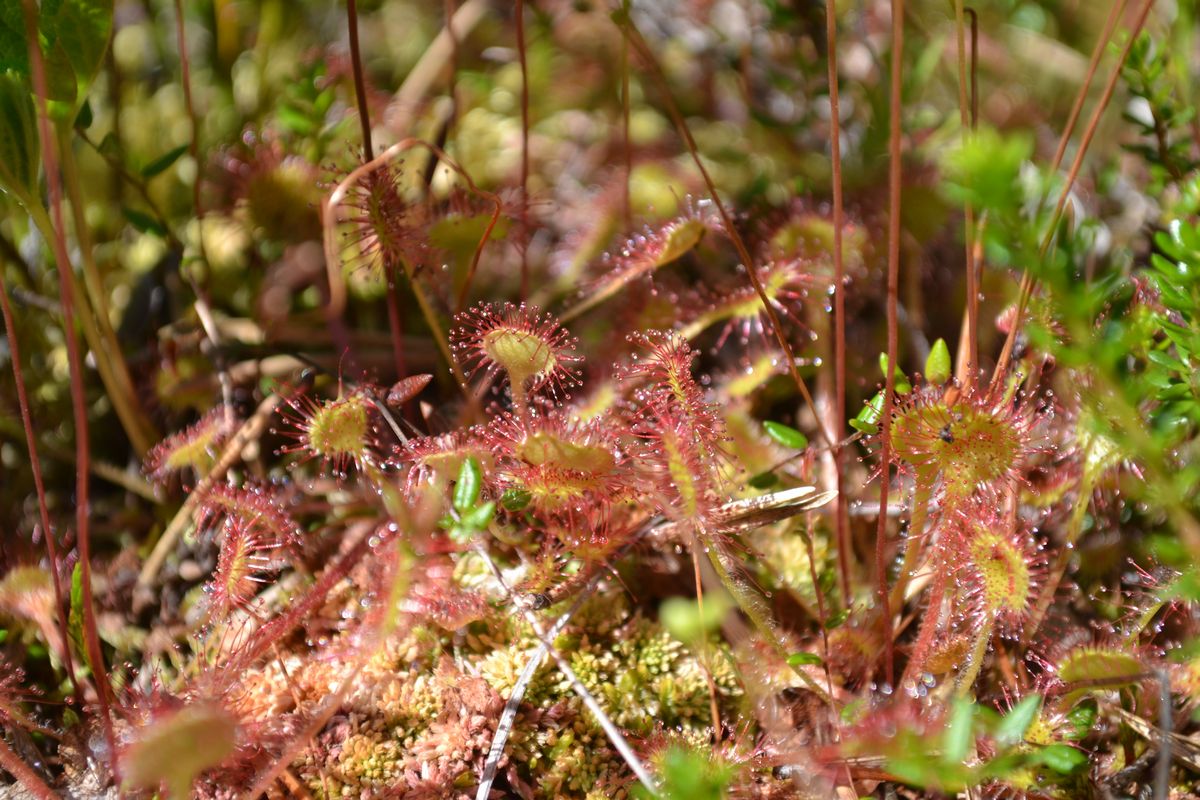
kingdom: Plantae
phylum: Tracheophyta
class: Magnoliopsida
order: Caryophyllales
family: Droseraceae
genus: Drosera
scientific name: Drosera rotundifolia
